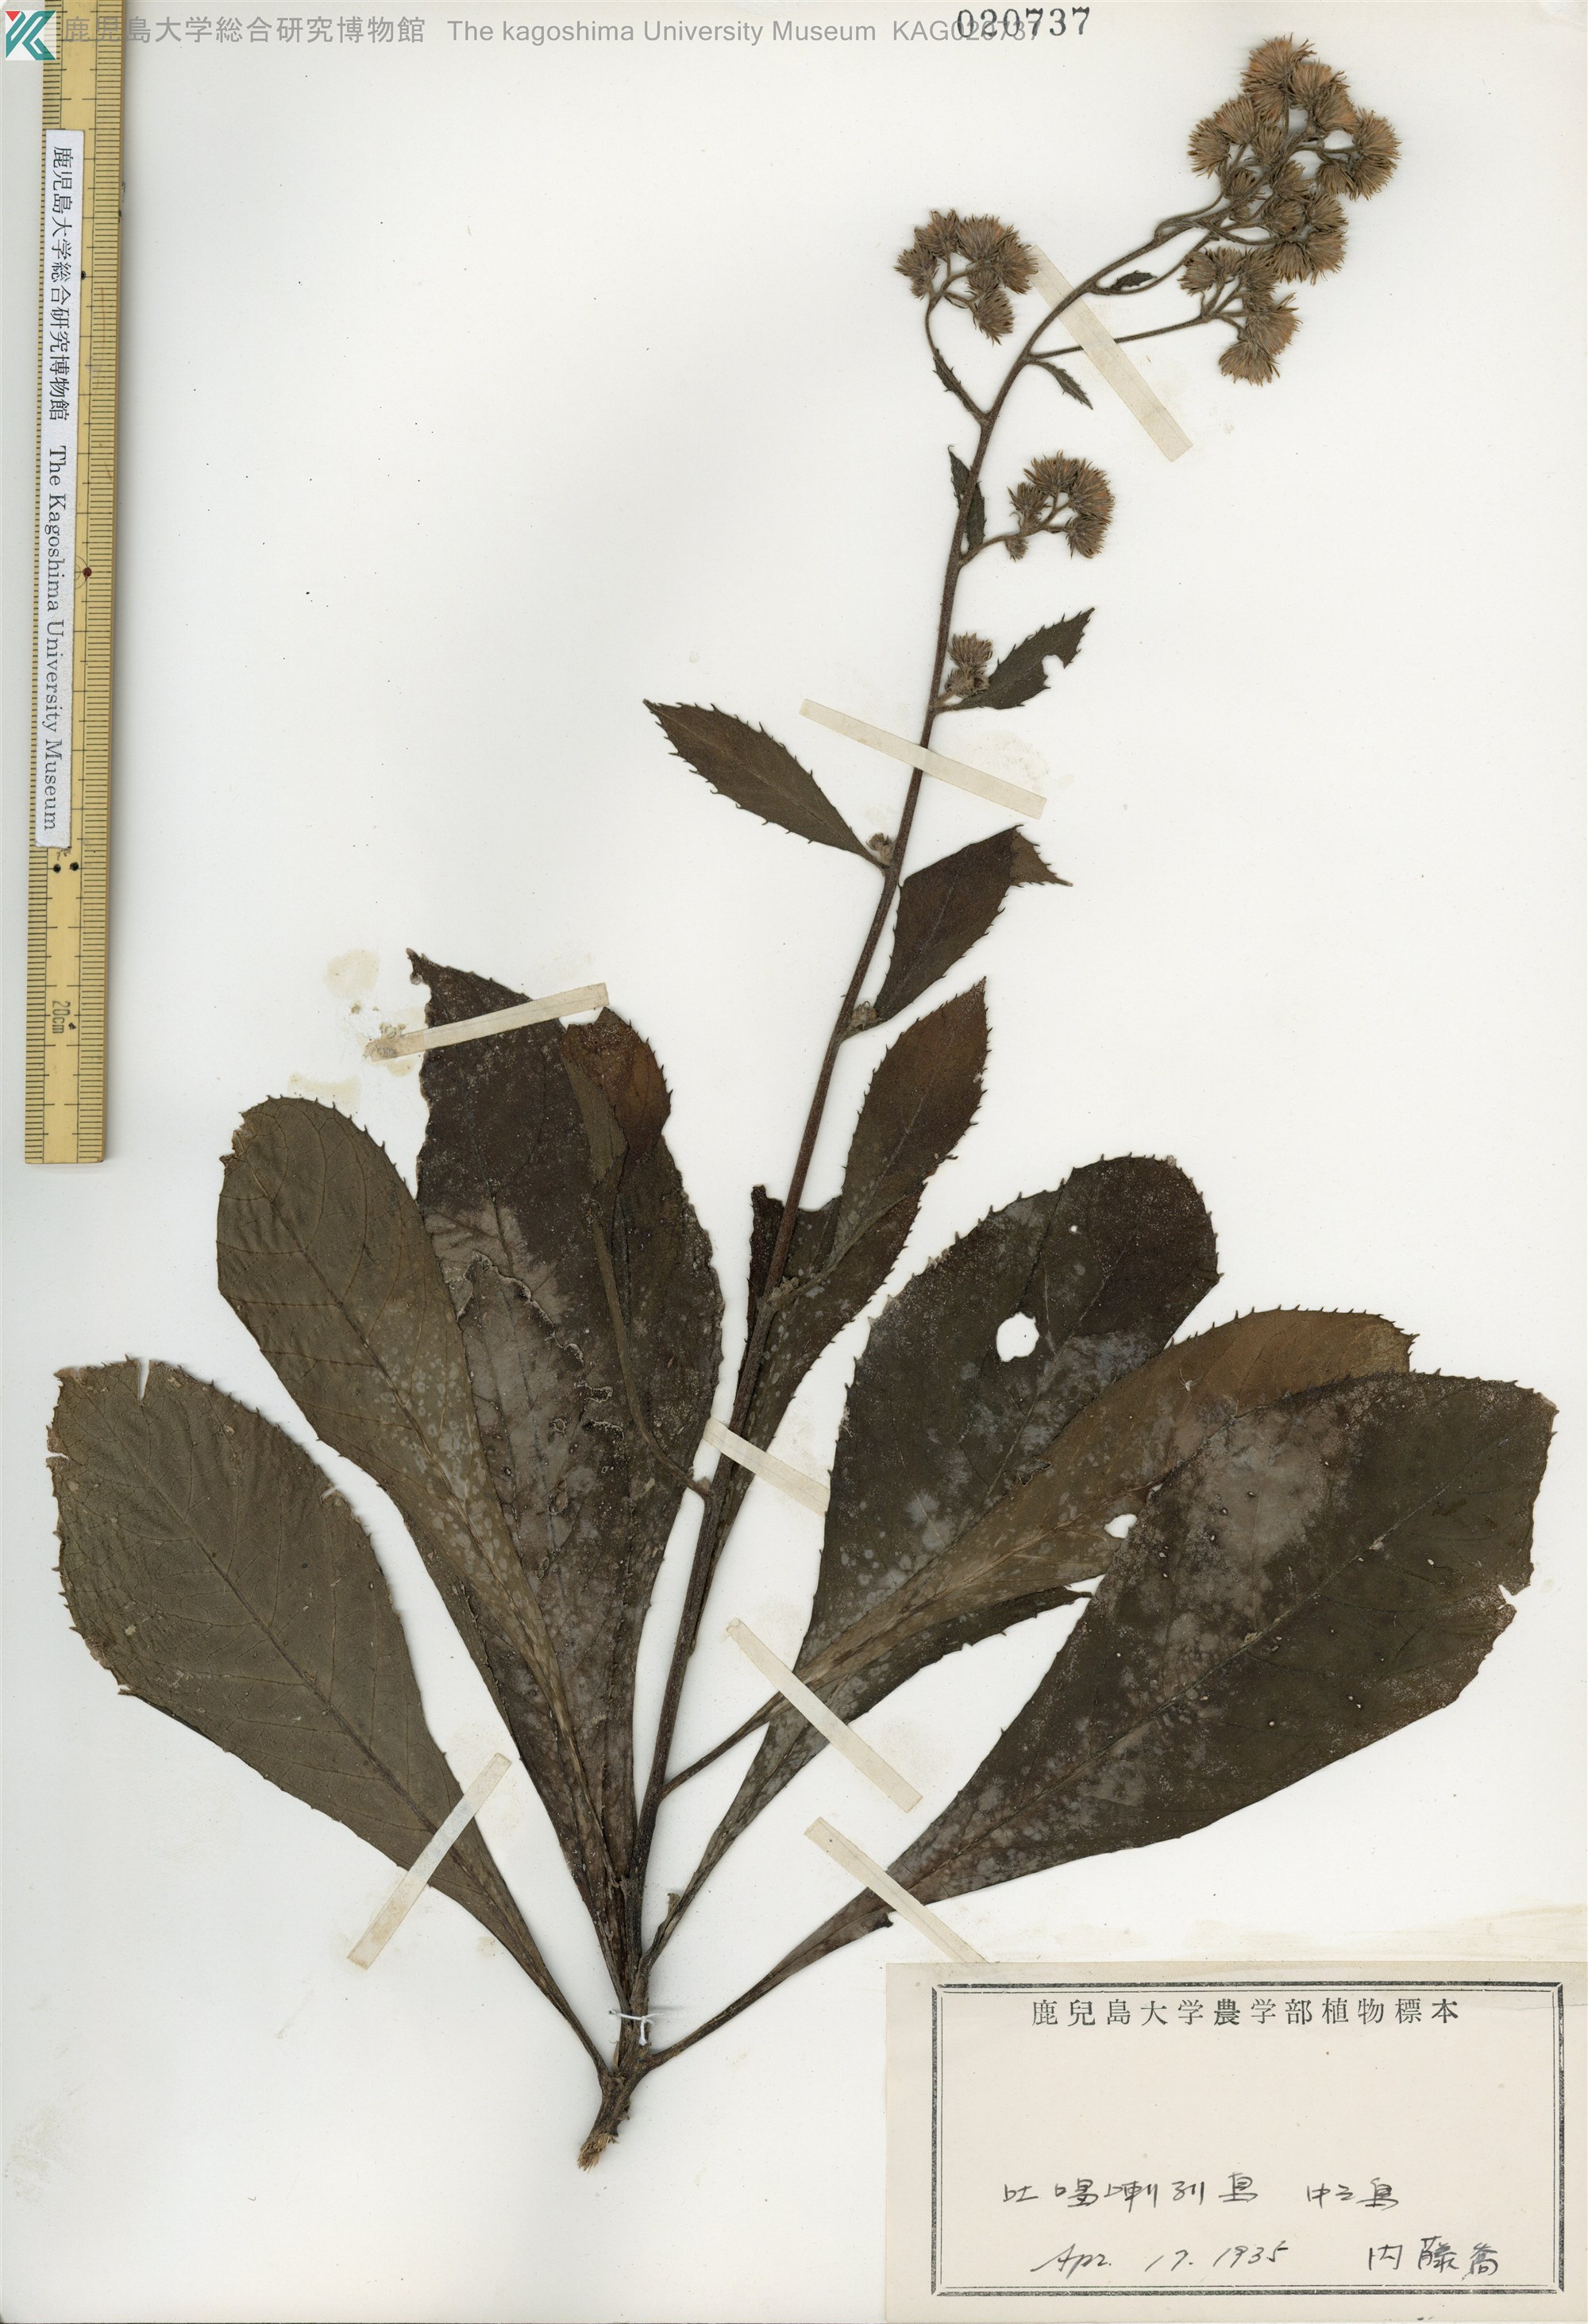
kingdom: Plantae
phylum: Tracheophyta
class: Magnoliopsida
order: Asterales
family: Asteraceae
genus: Blumea
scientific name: Blumea conspicua
